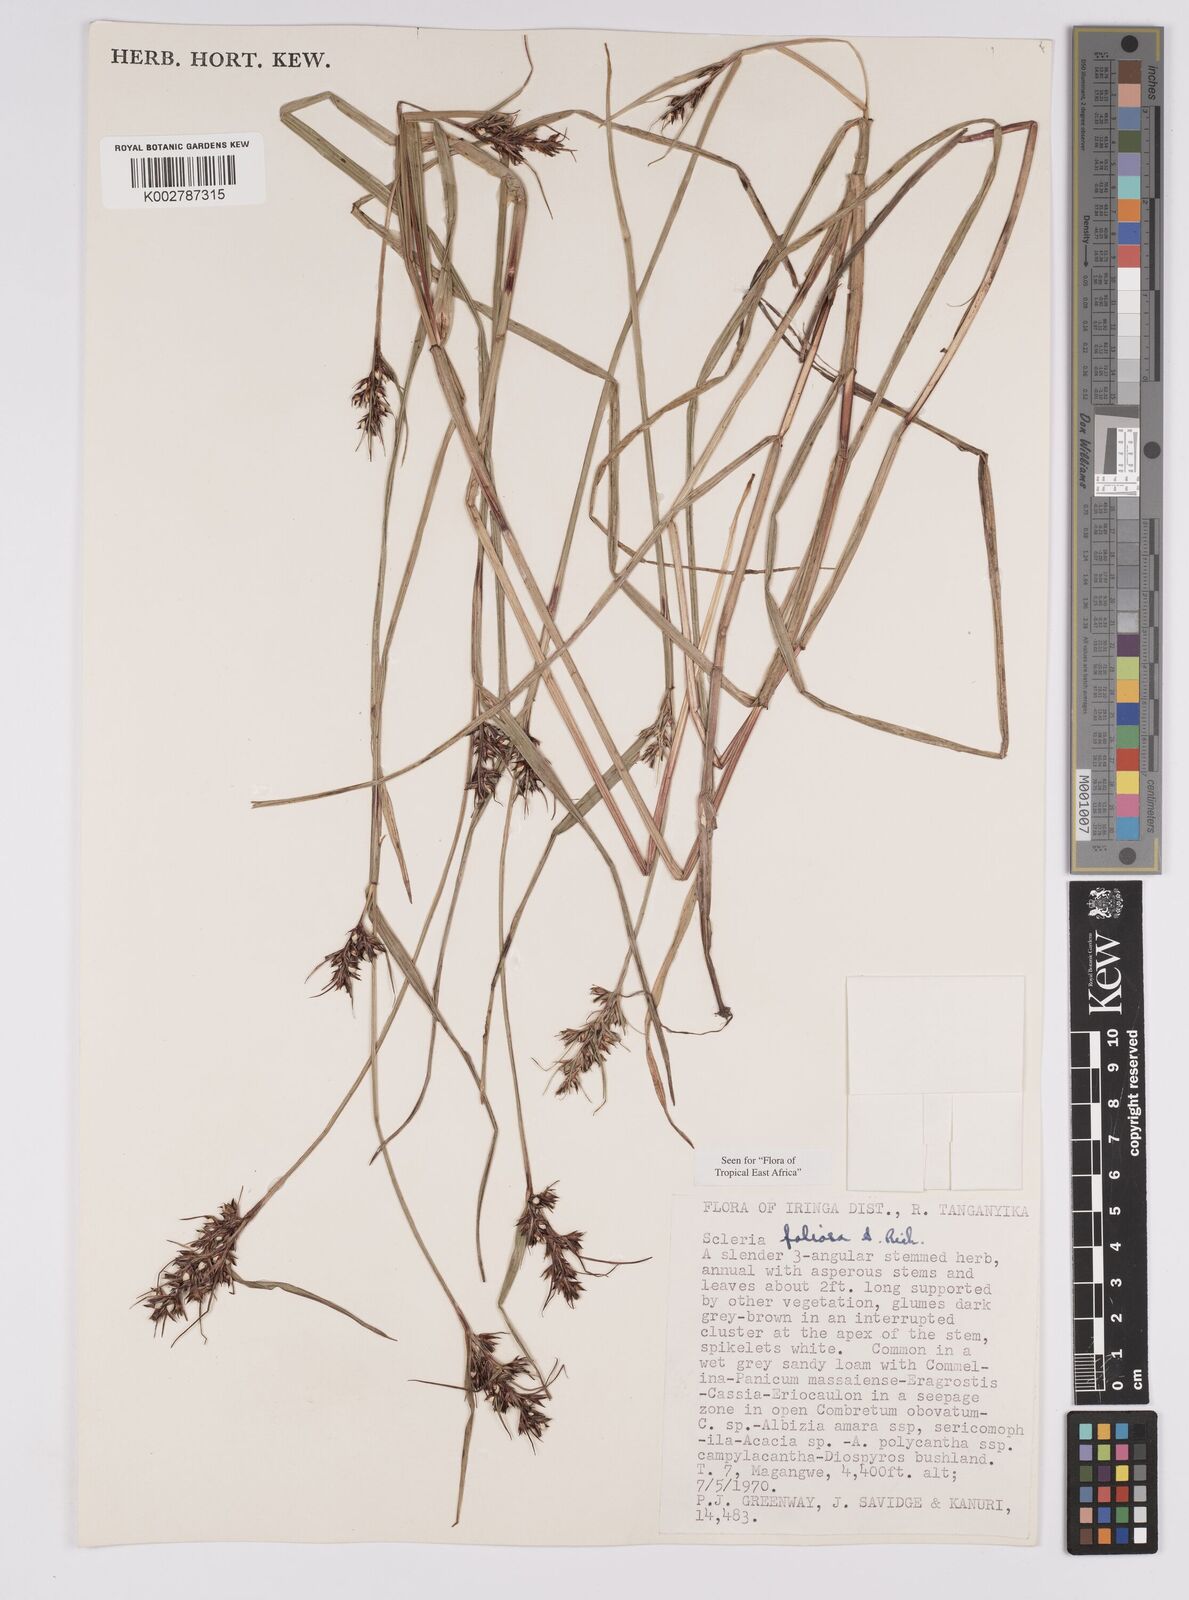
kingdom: Plantae
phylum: Tracheophyta
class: Liliopsida
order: Poales
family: Cyperaceae
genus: Scleria
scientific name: Scleria foliosa
